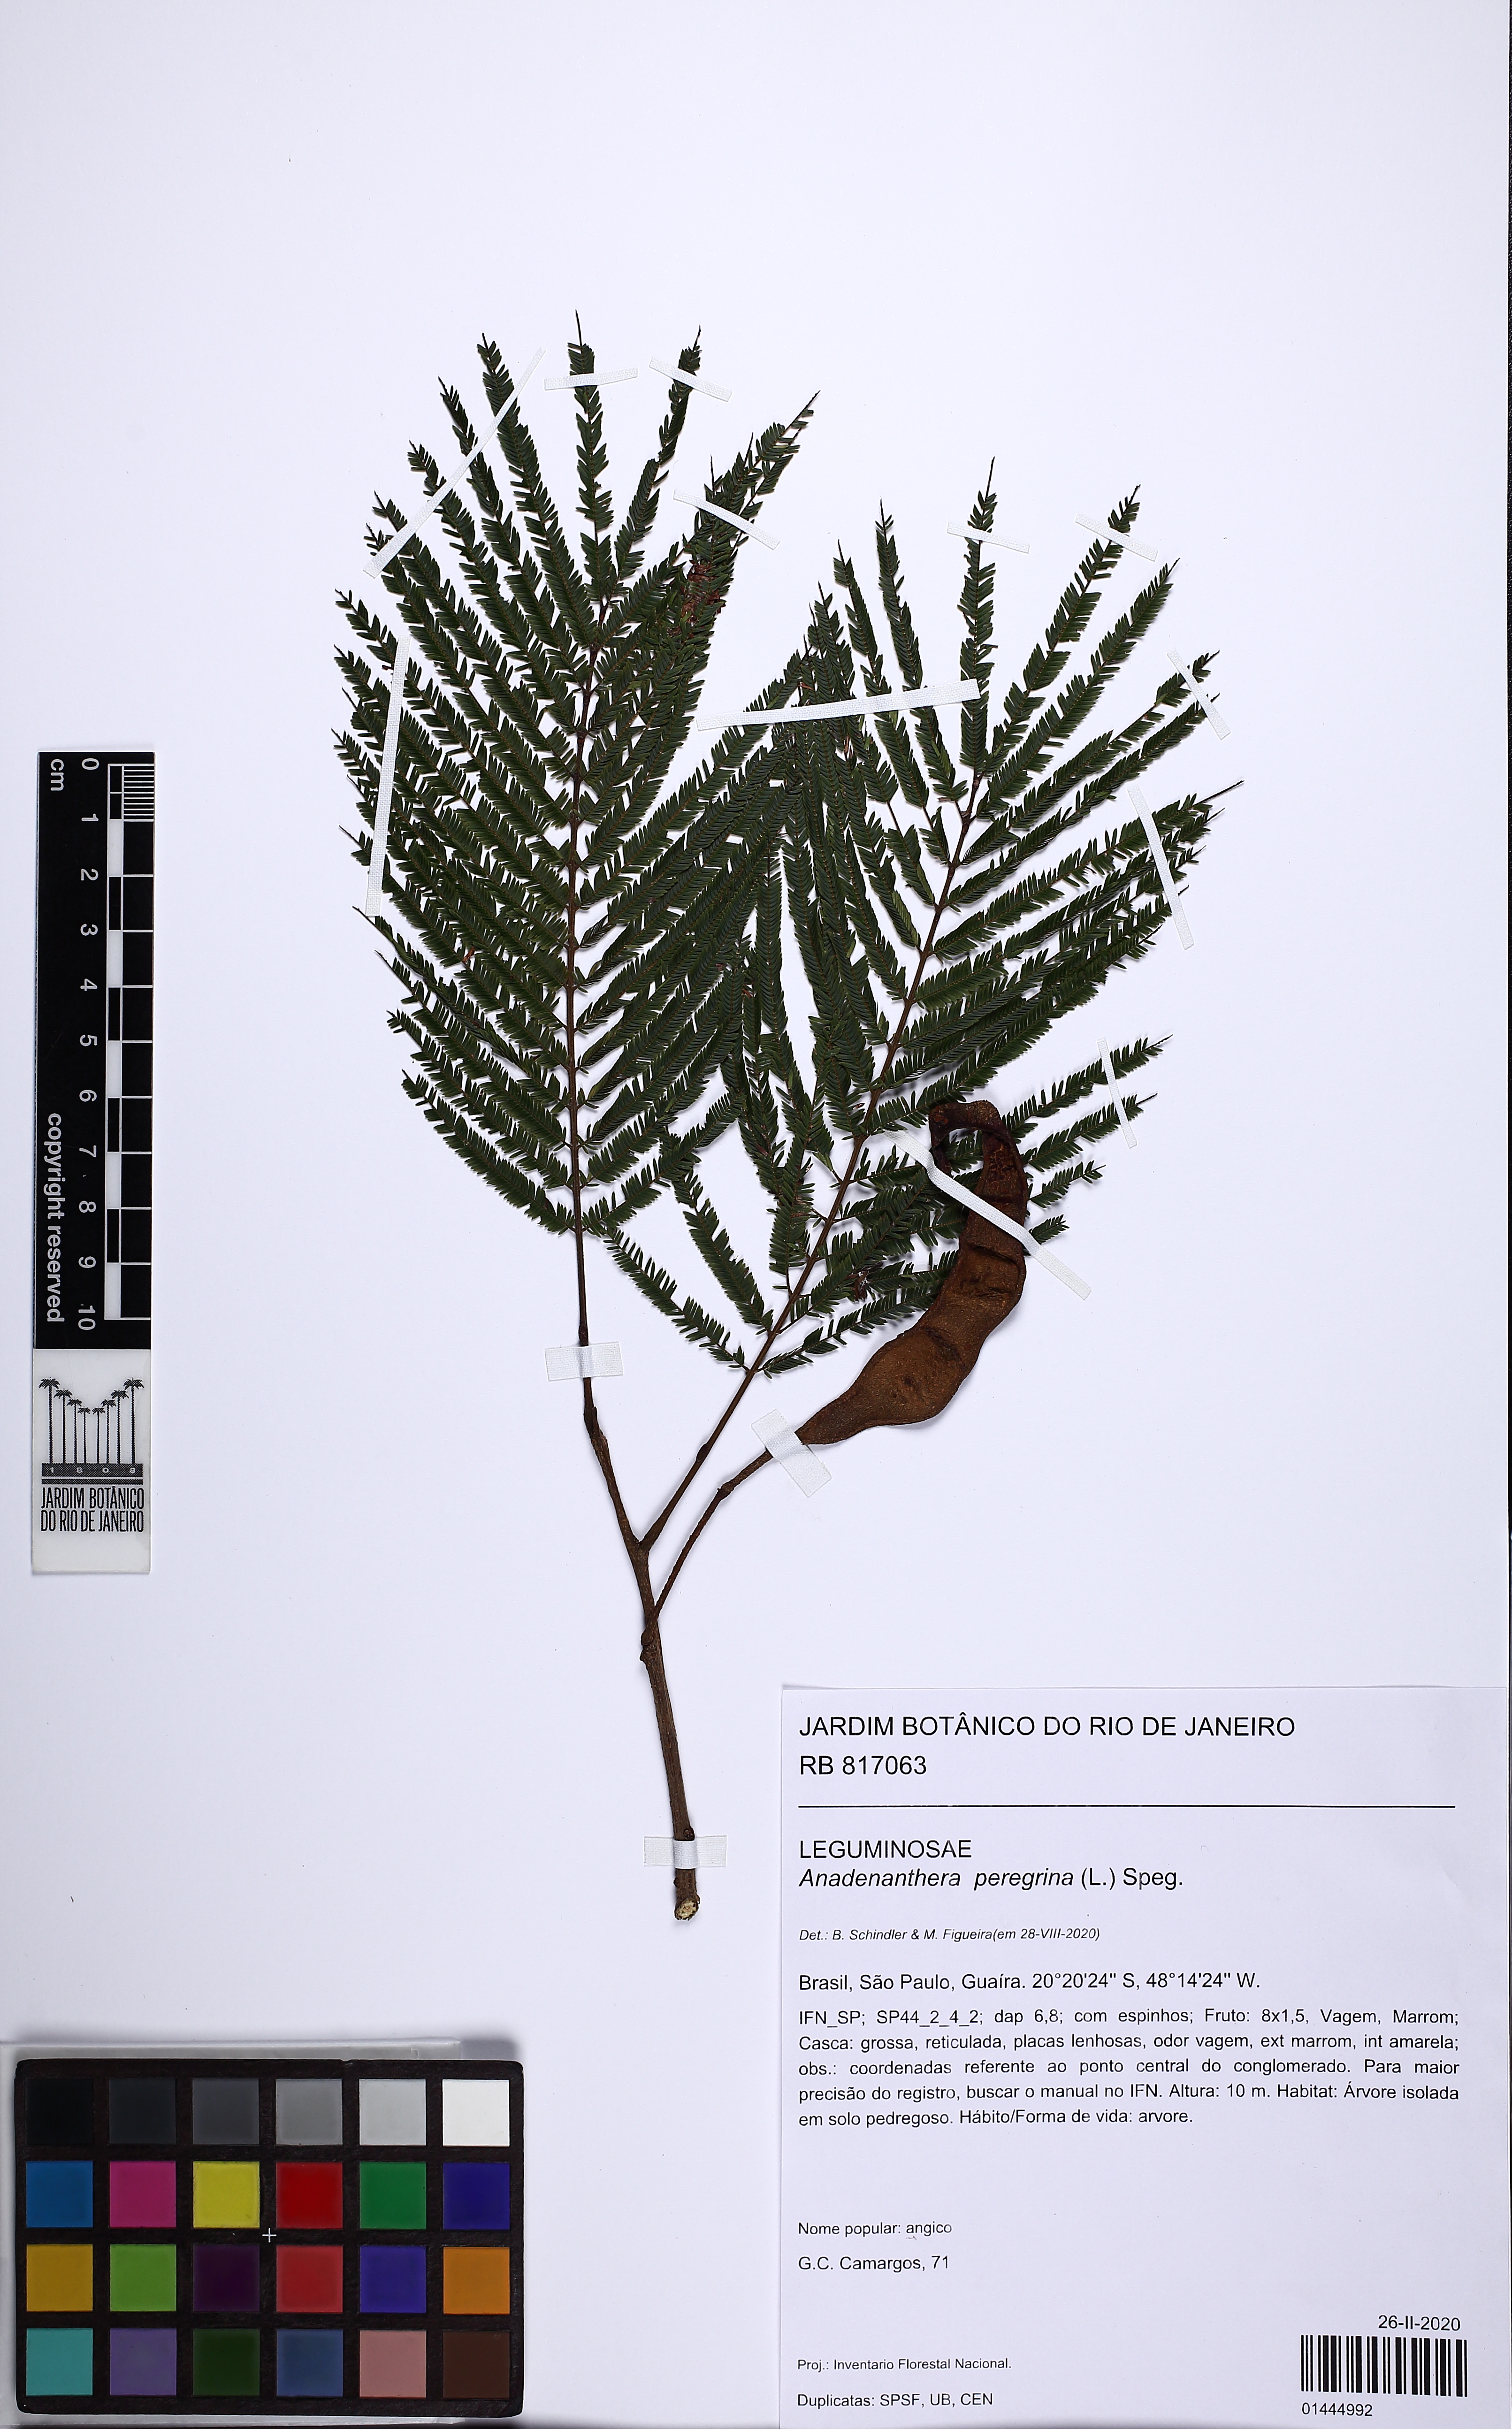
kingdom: Plantae
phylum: Tracheophyta
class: Magnoliopsida
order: Fabales
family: Fabaceae
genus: Anadenanthera
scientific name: Anadenanthera peregrina
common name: Cohoba
